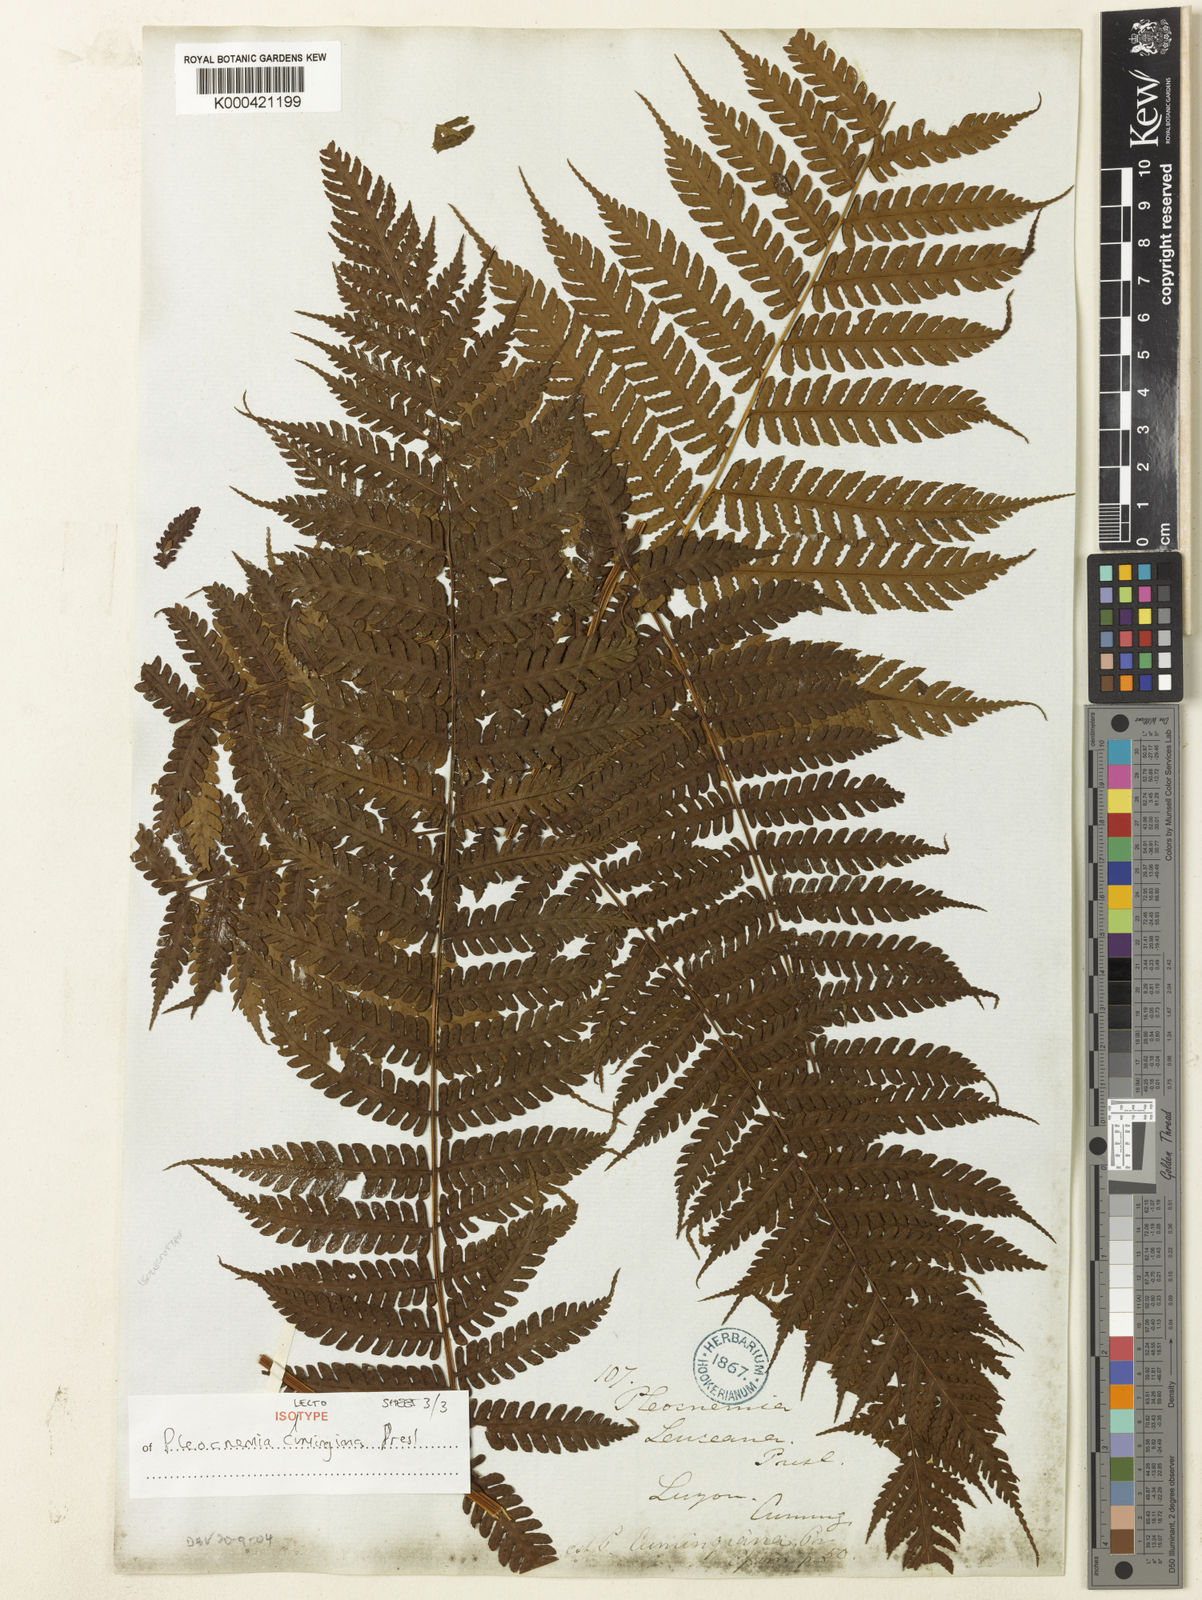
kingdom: Plantae
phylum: Tracheophyta
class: Polypodiopsida
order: Polypodiales
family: Dryopteridaceae
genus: Pleocnemia
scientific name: Pleocnemia cumingiana
